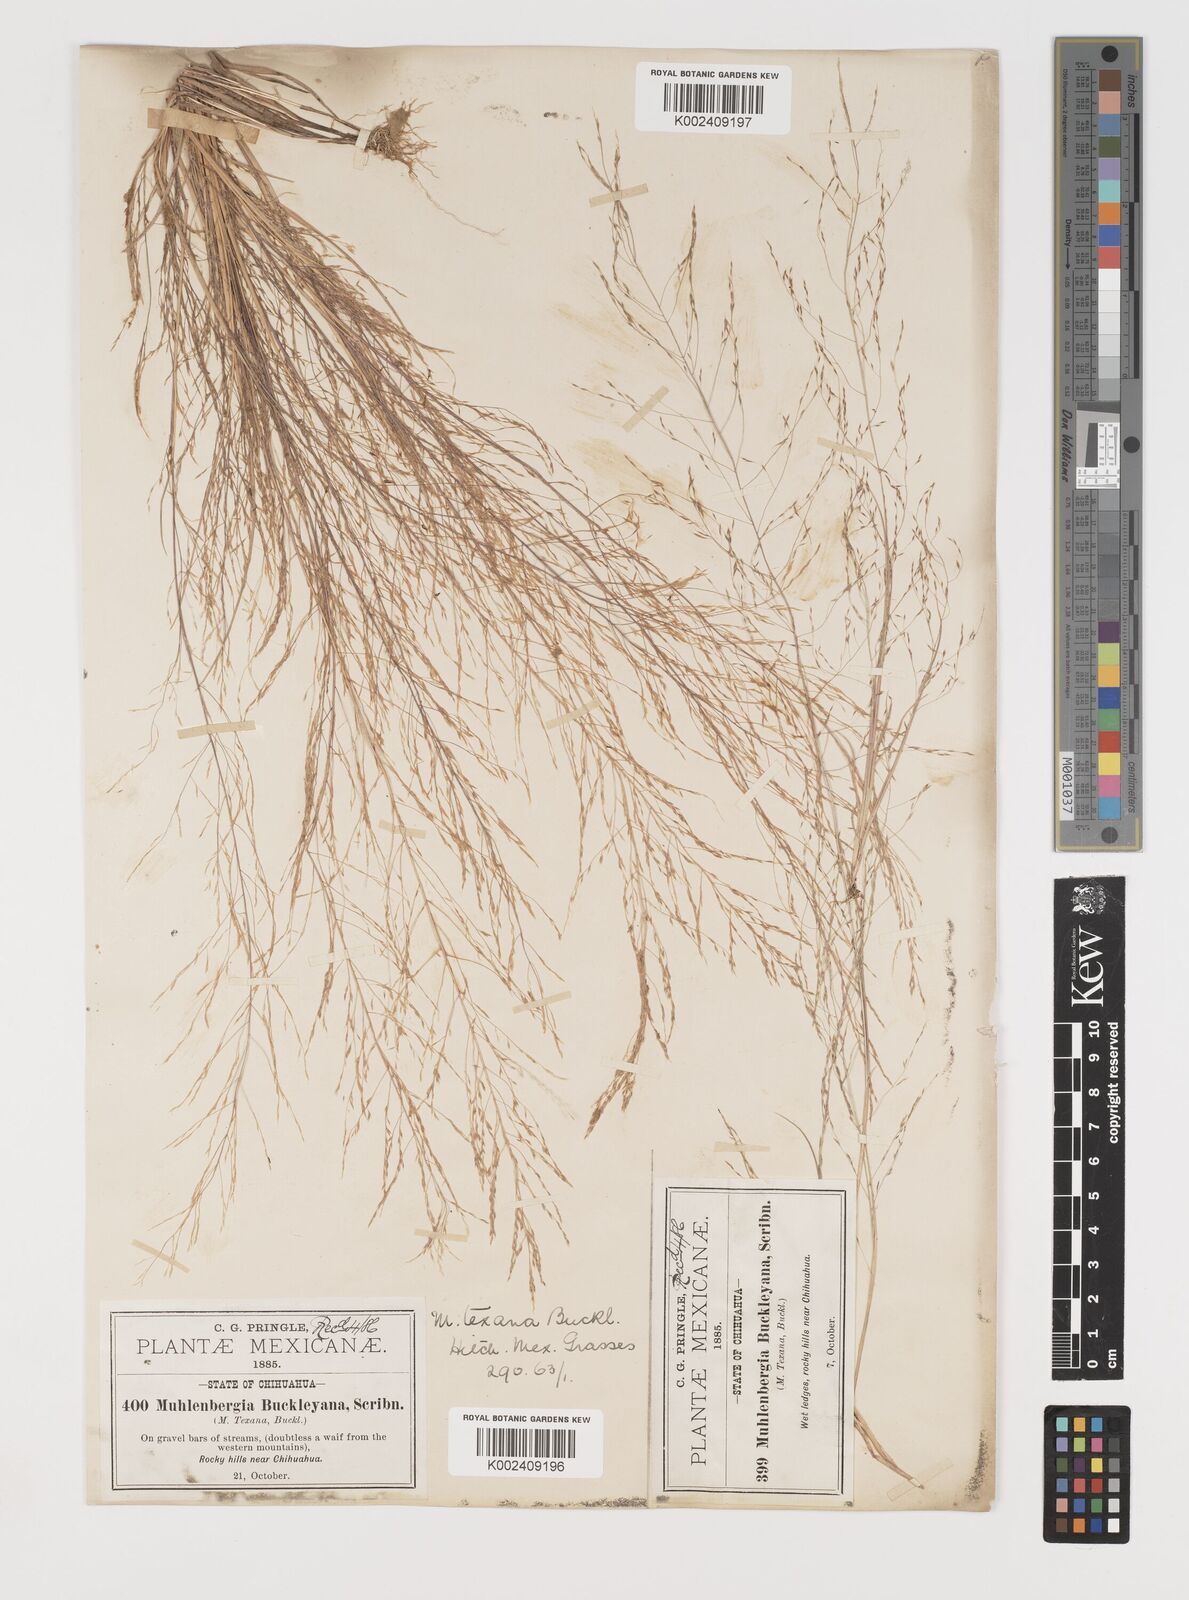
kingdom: Plantae
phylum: Tracheophyta
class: Liliopsida
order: Poales
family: Poaceae
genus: Muhlenbergia
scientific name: Muhlenbergia texana
